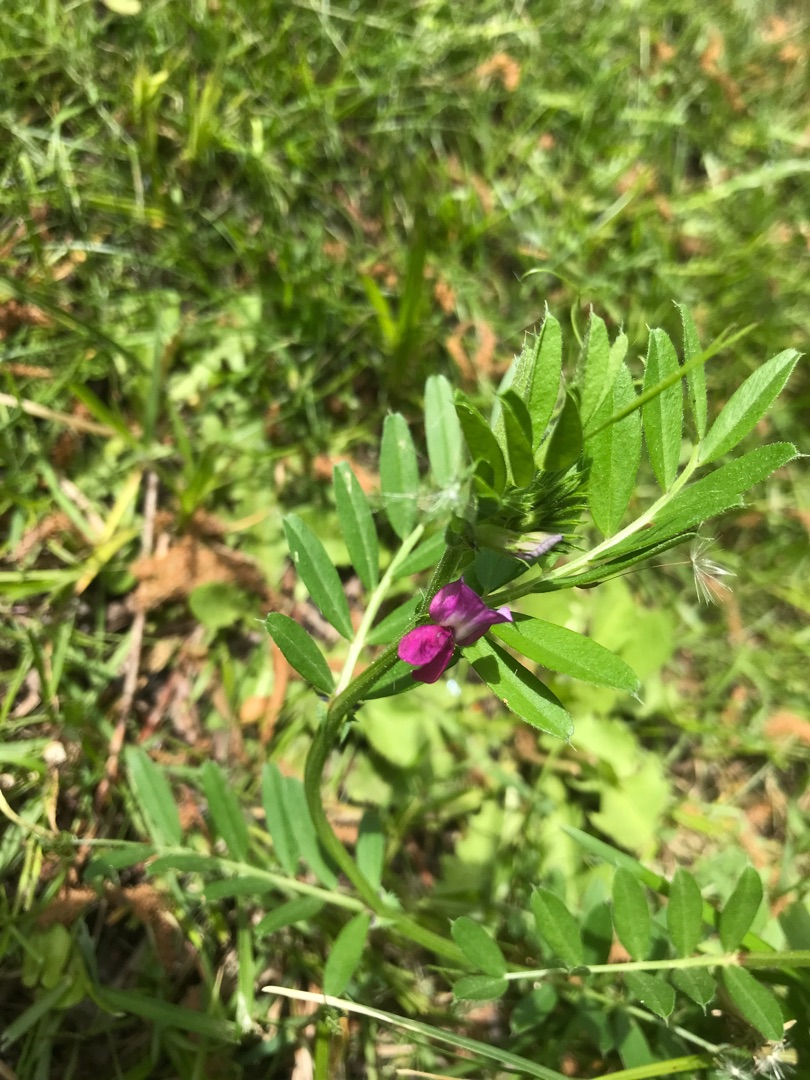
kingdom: Plantae
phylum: Tracheophyta
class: Magnoliopsida
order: Fabales
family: Fabaceae
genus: Vicia
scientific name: Vicia sativa
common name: Foder-vikke
